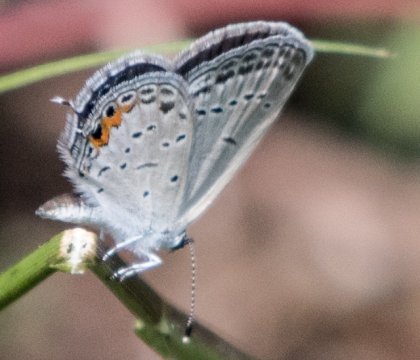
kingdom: Animalia
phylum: Arthropoda
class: Insecta
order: Lepidoptera
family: Lycaenidae
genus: Elkalyce
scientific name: Elkalyce comyntas
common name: Eastern Tailed-Blue
